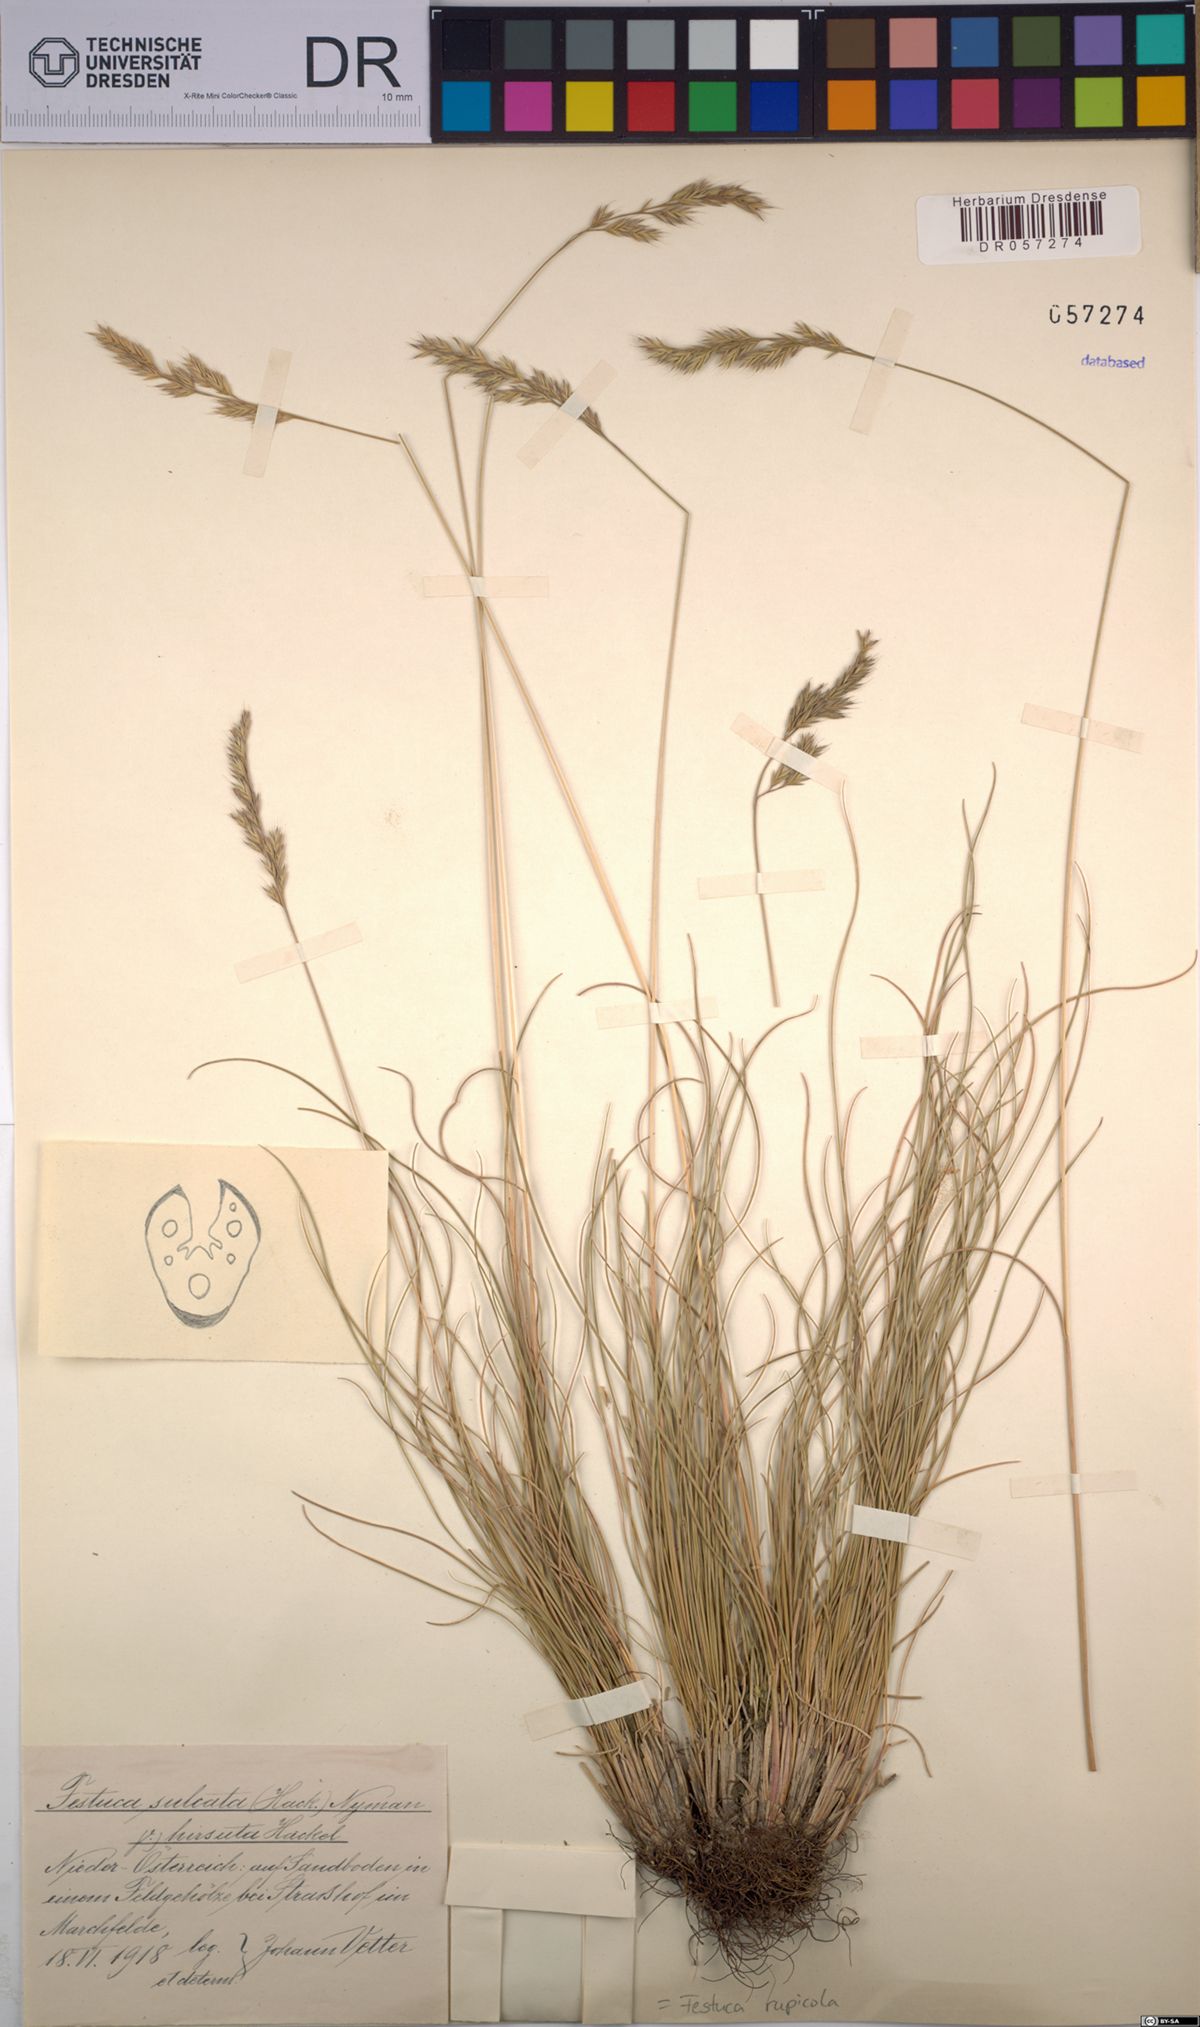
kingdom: Plantae
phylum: Tracheophyta
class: Liliopsida
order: Poales
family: Poaceae
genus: Festuca
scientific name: Festuca rupicola
